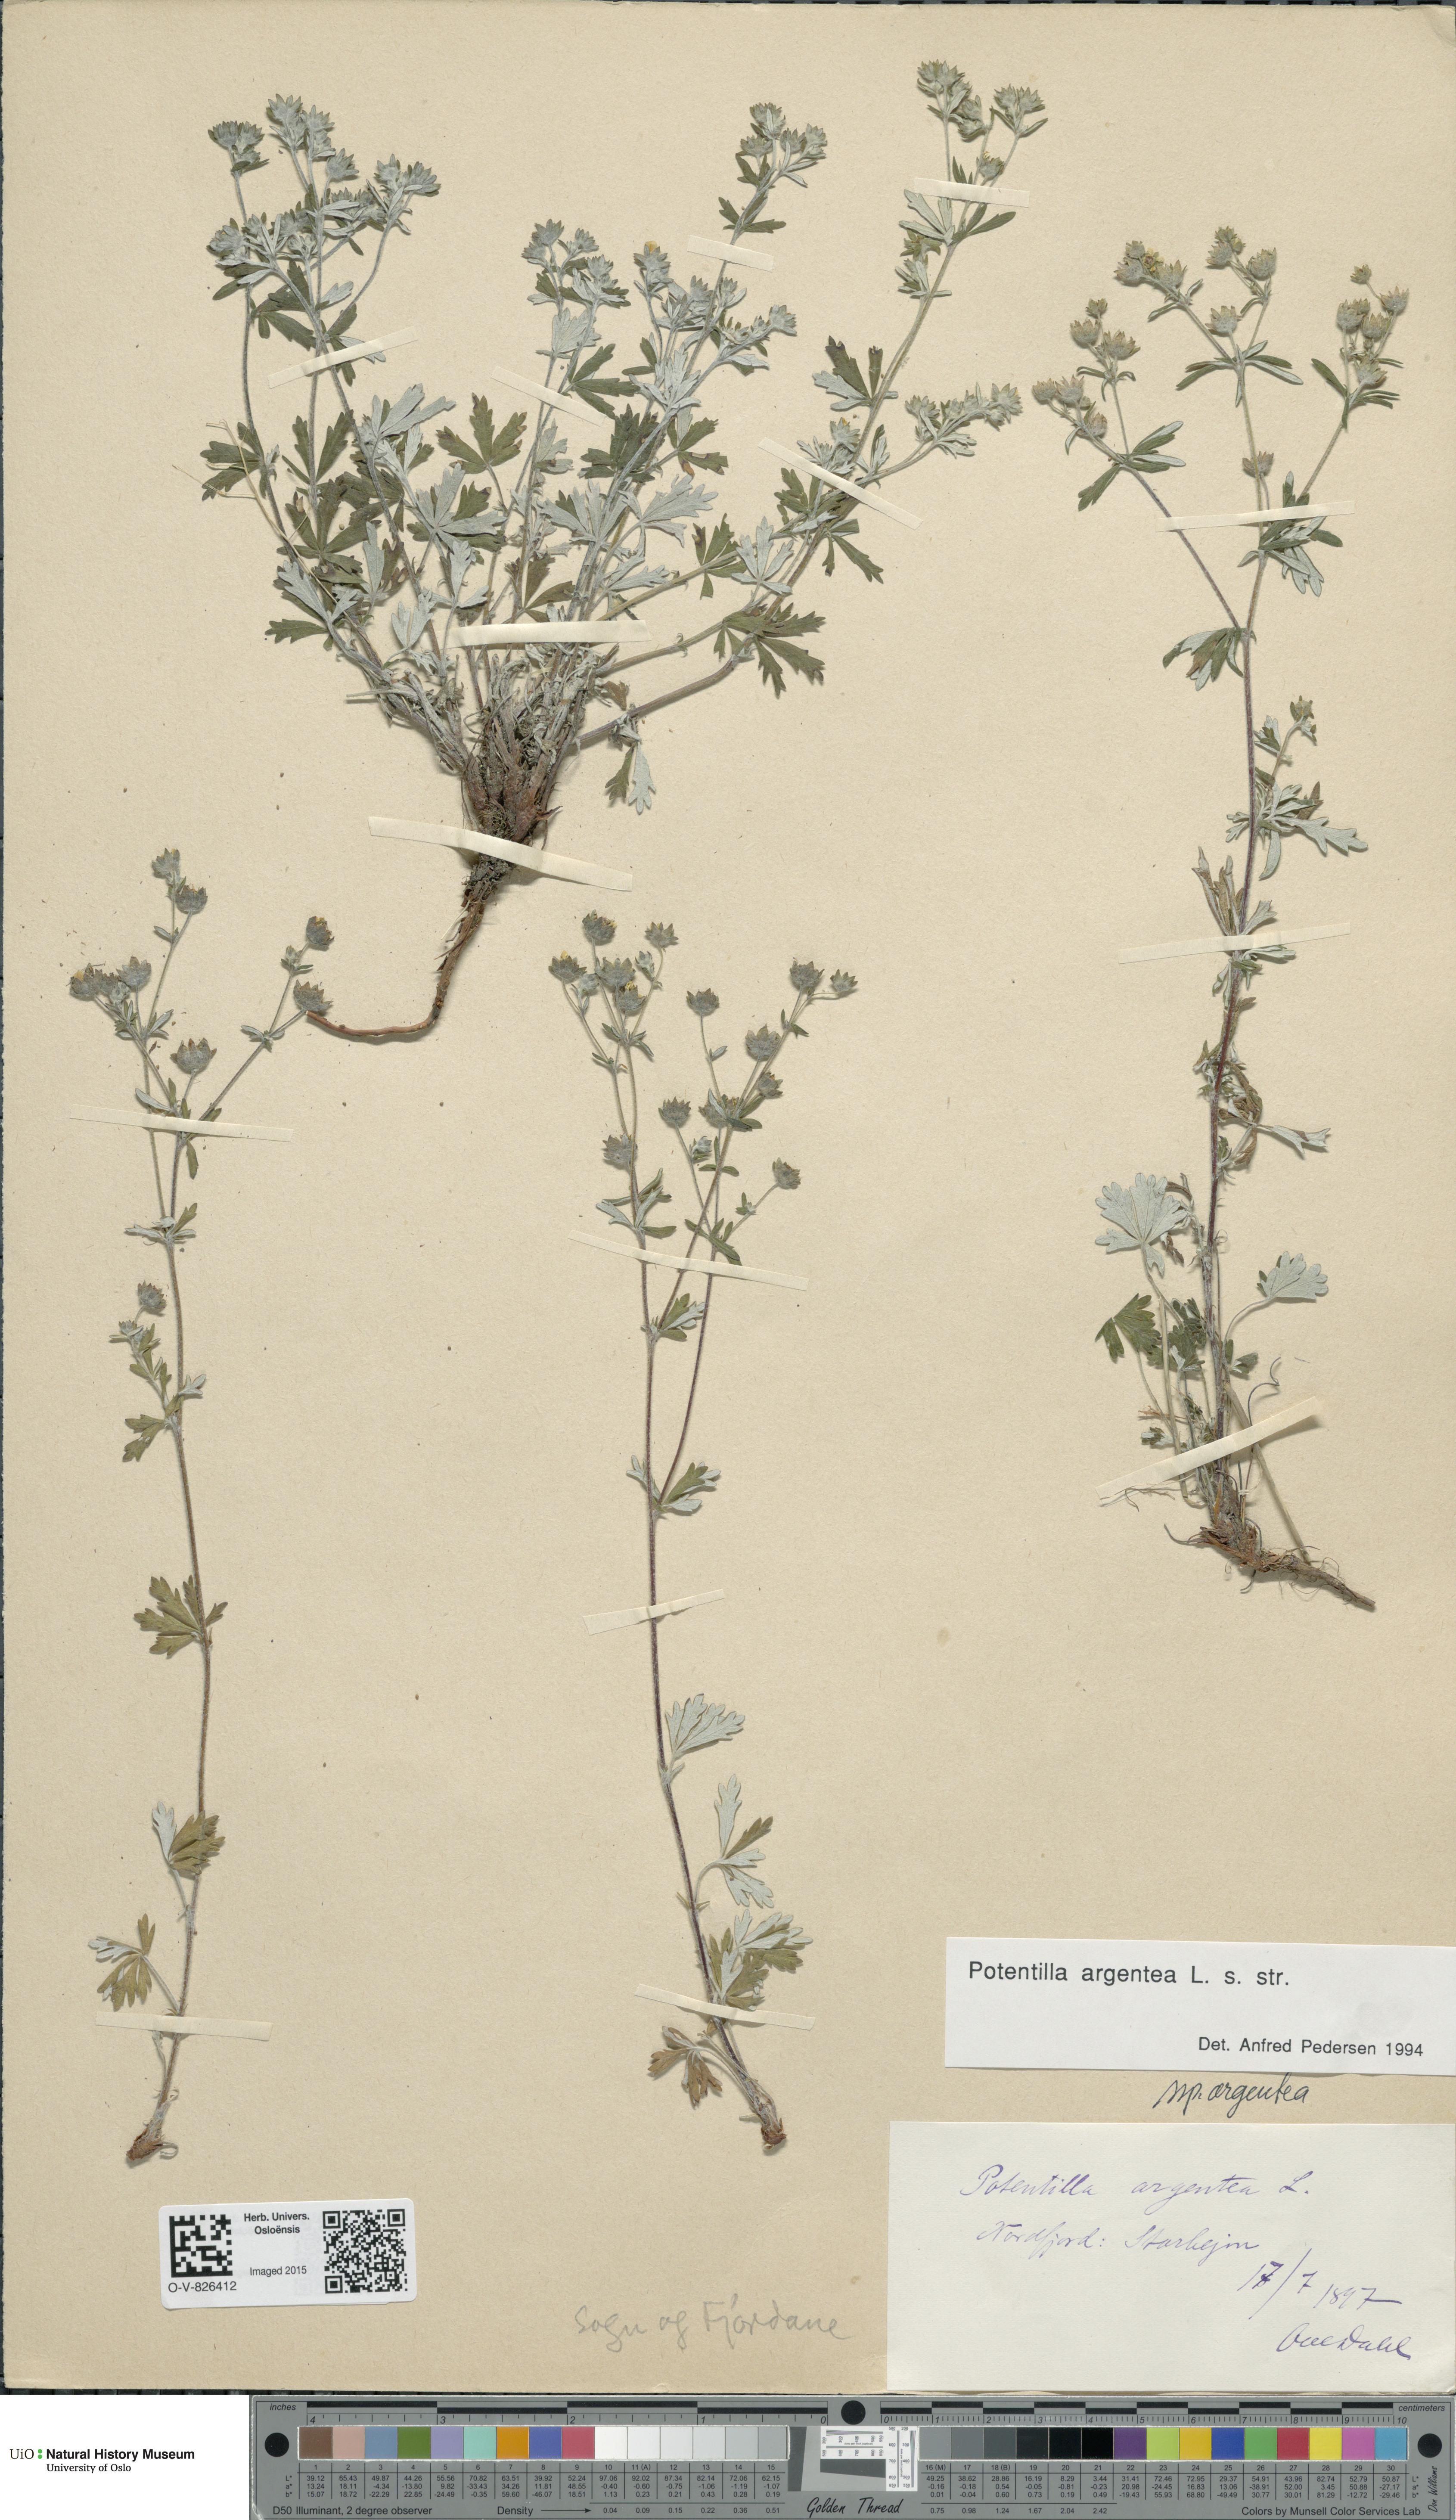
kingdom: Plantae
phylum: Tracheophyta
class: Magnoliopsida
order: Rosales
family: Rosaceae
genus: Potentilla
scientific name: Potentilla argentea
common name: Hoary cinquefoil
